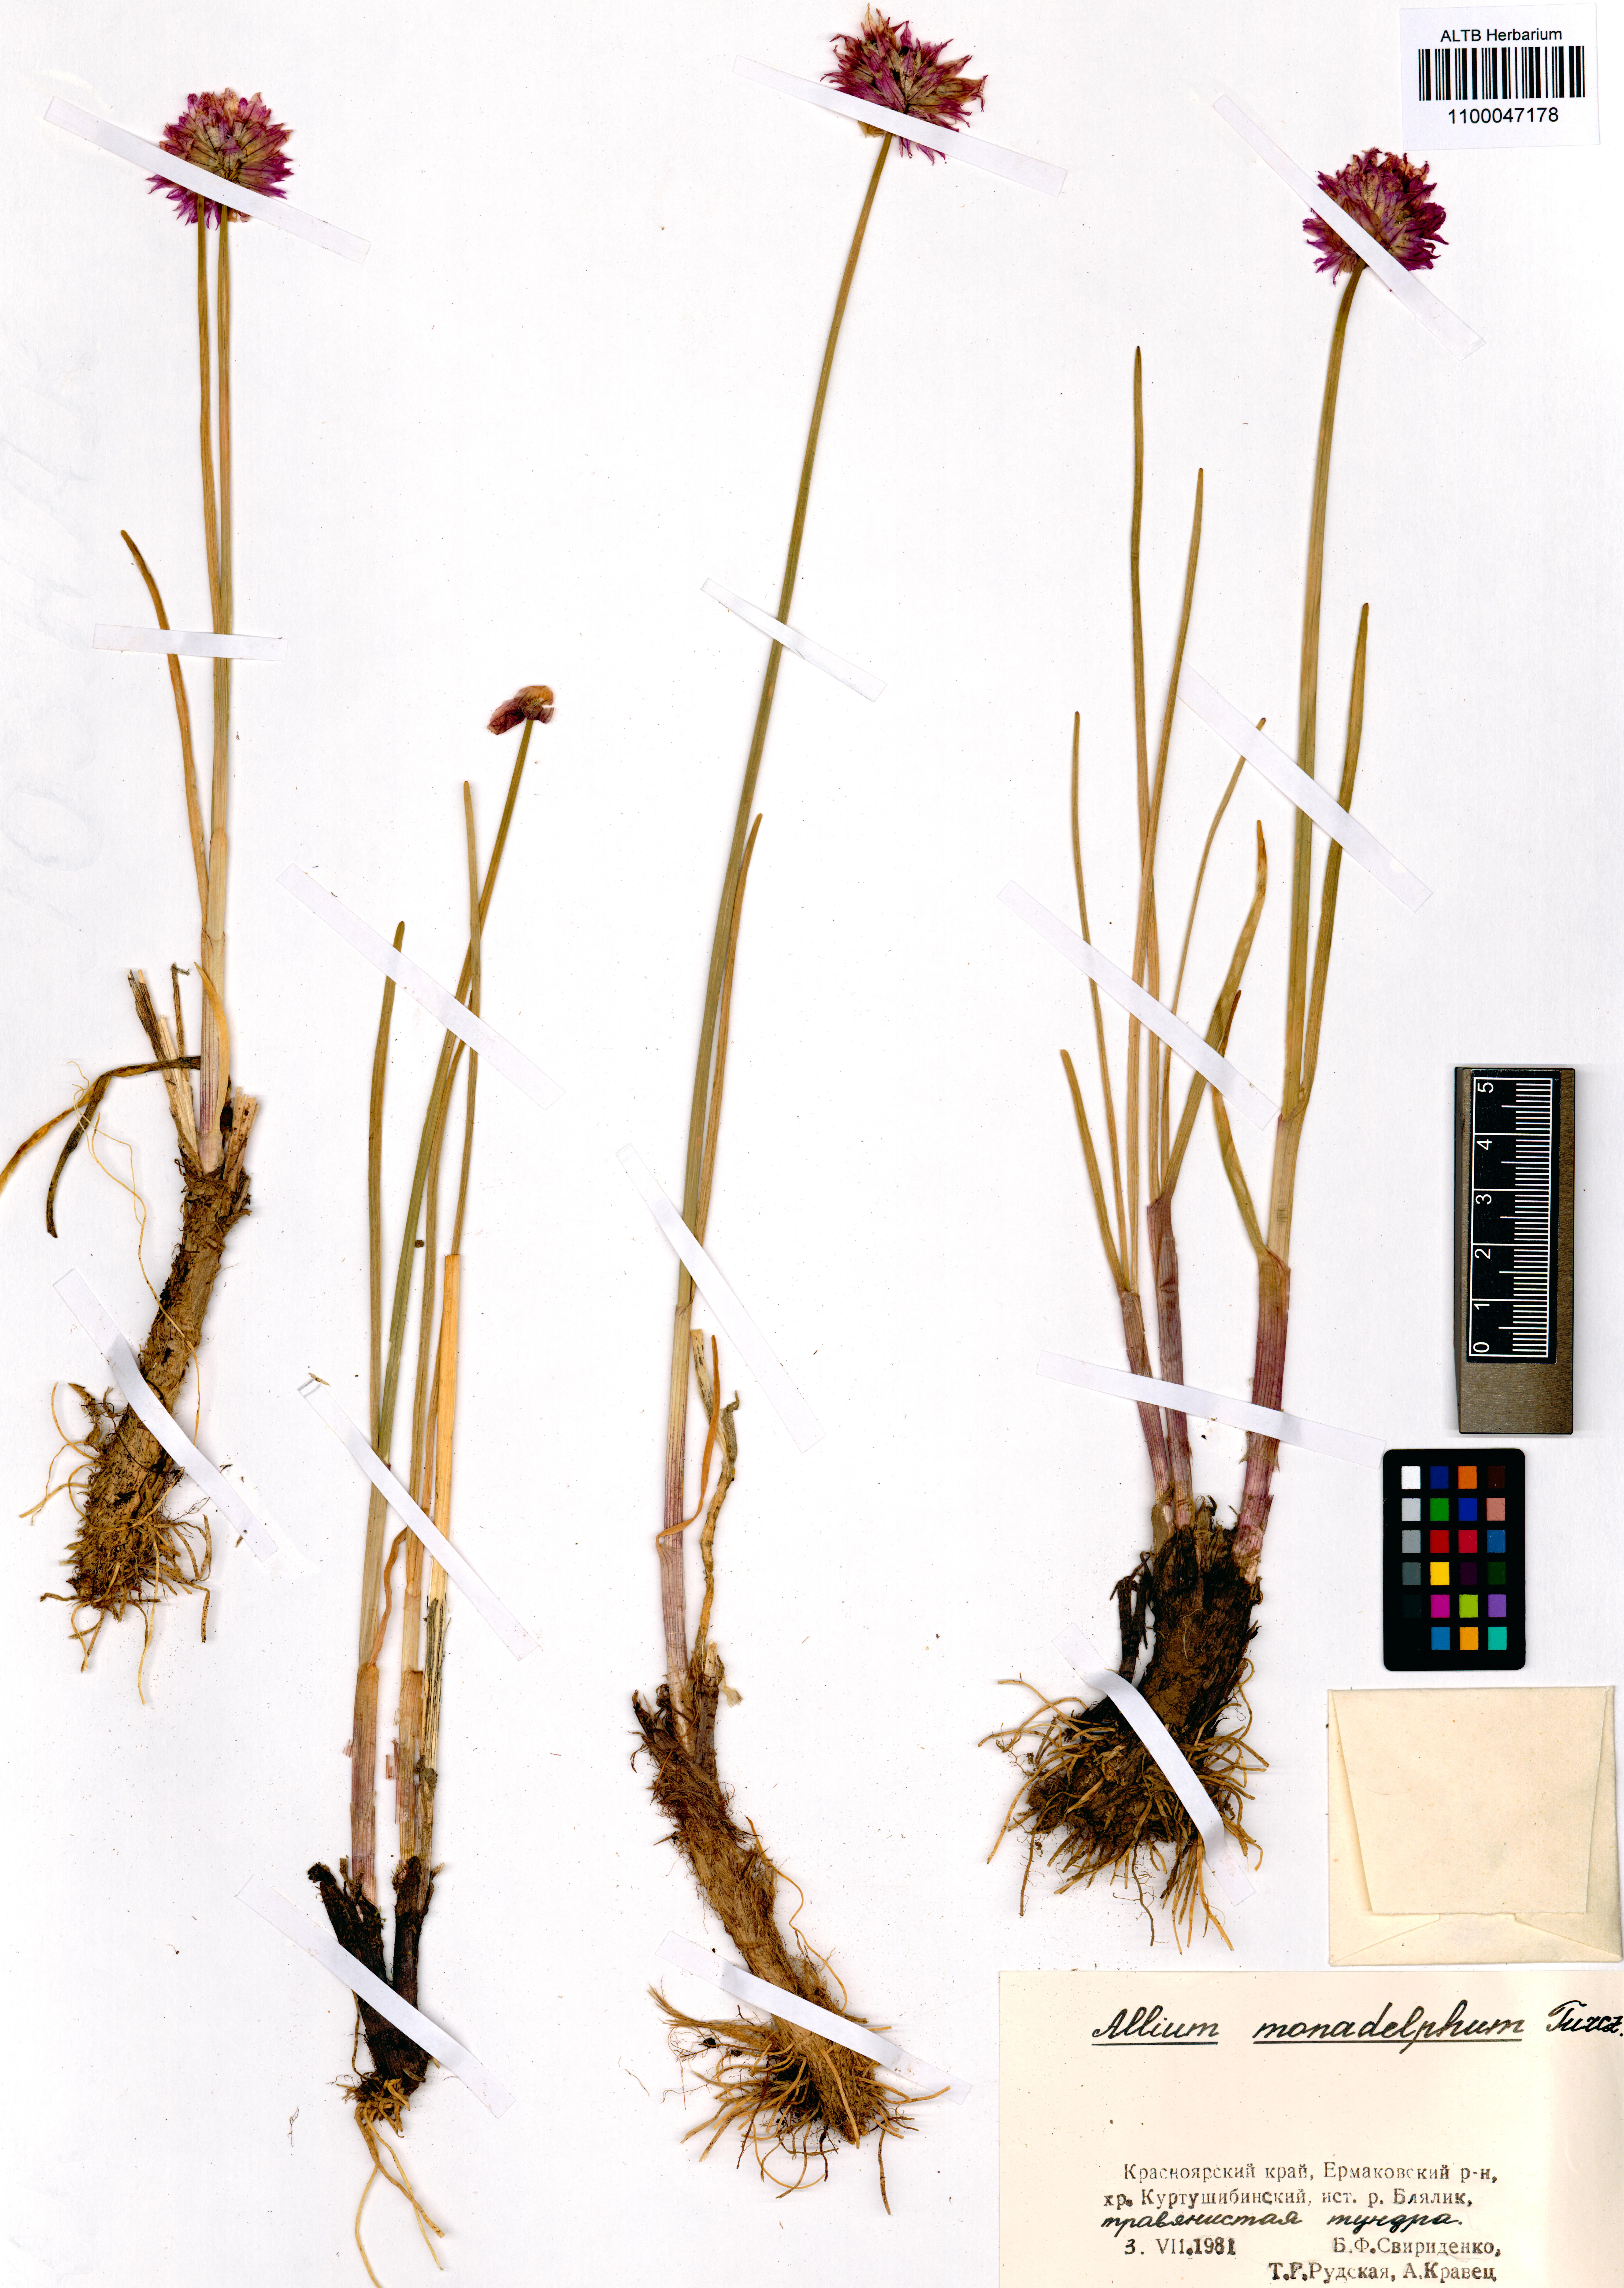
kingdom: Plantae
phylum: Tracheophyta
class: Liliopsida
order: Asparagales
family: Amaryllidaceae
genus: Allium
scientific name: Allium atrosanguineum
